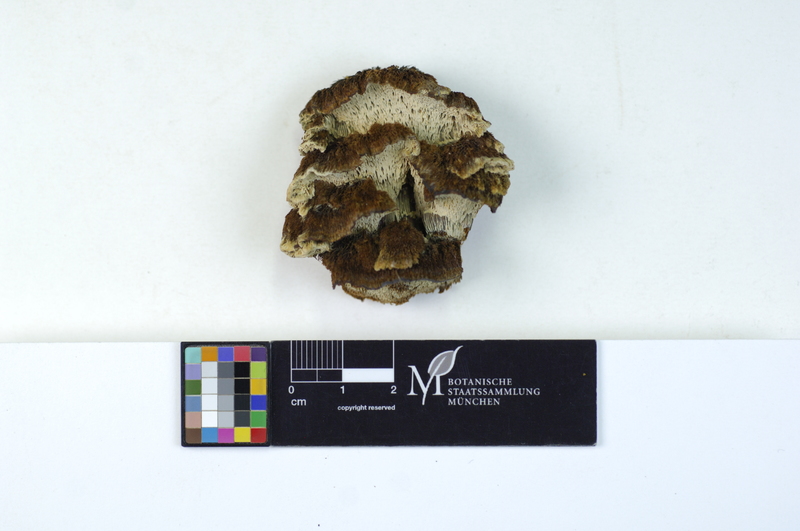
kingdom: Fungi
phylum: Basidiomycota
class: Agaricomycetes
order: Hymenochaetales
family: Hymenochaetaceae
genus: Mensularia
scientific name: Mensularia nodulosa
